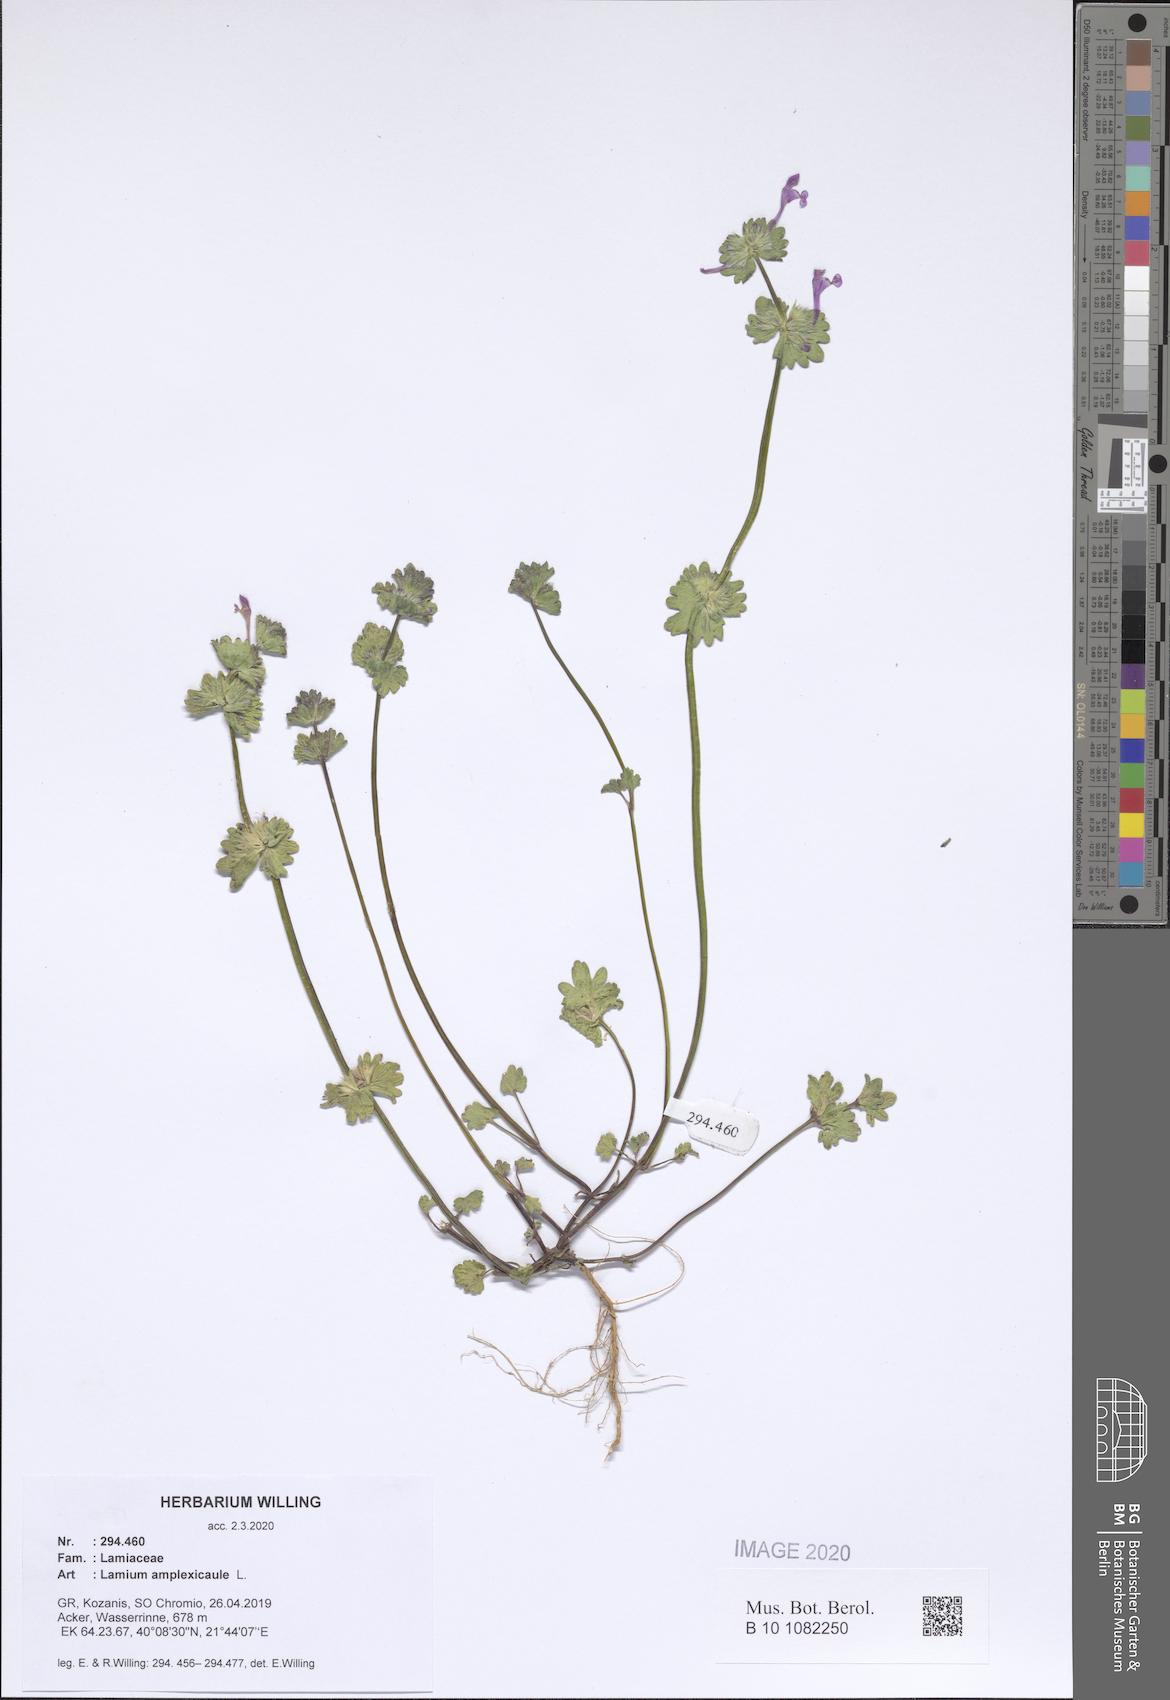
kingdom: Plantae
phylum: Tracheophyta
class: Magnoliopsida
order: Lamiales
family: Lamiaceae
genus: Lamium
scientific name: Lamium amplexicaule
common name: Henbit dead-nettle
